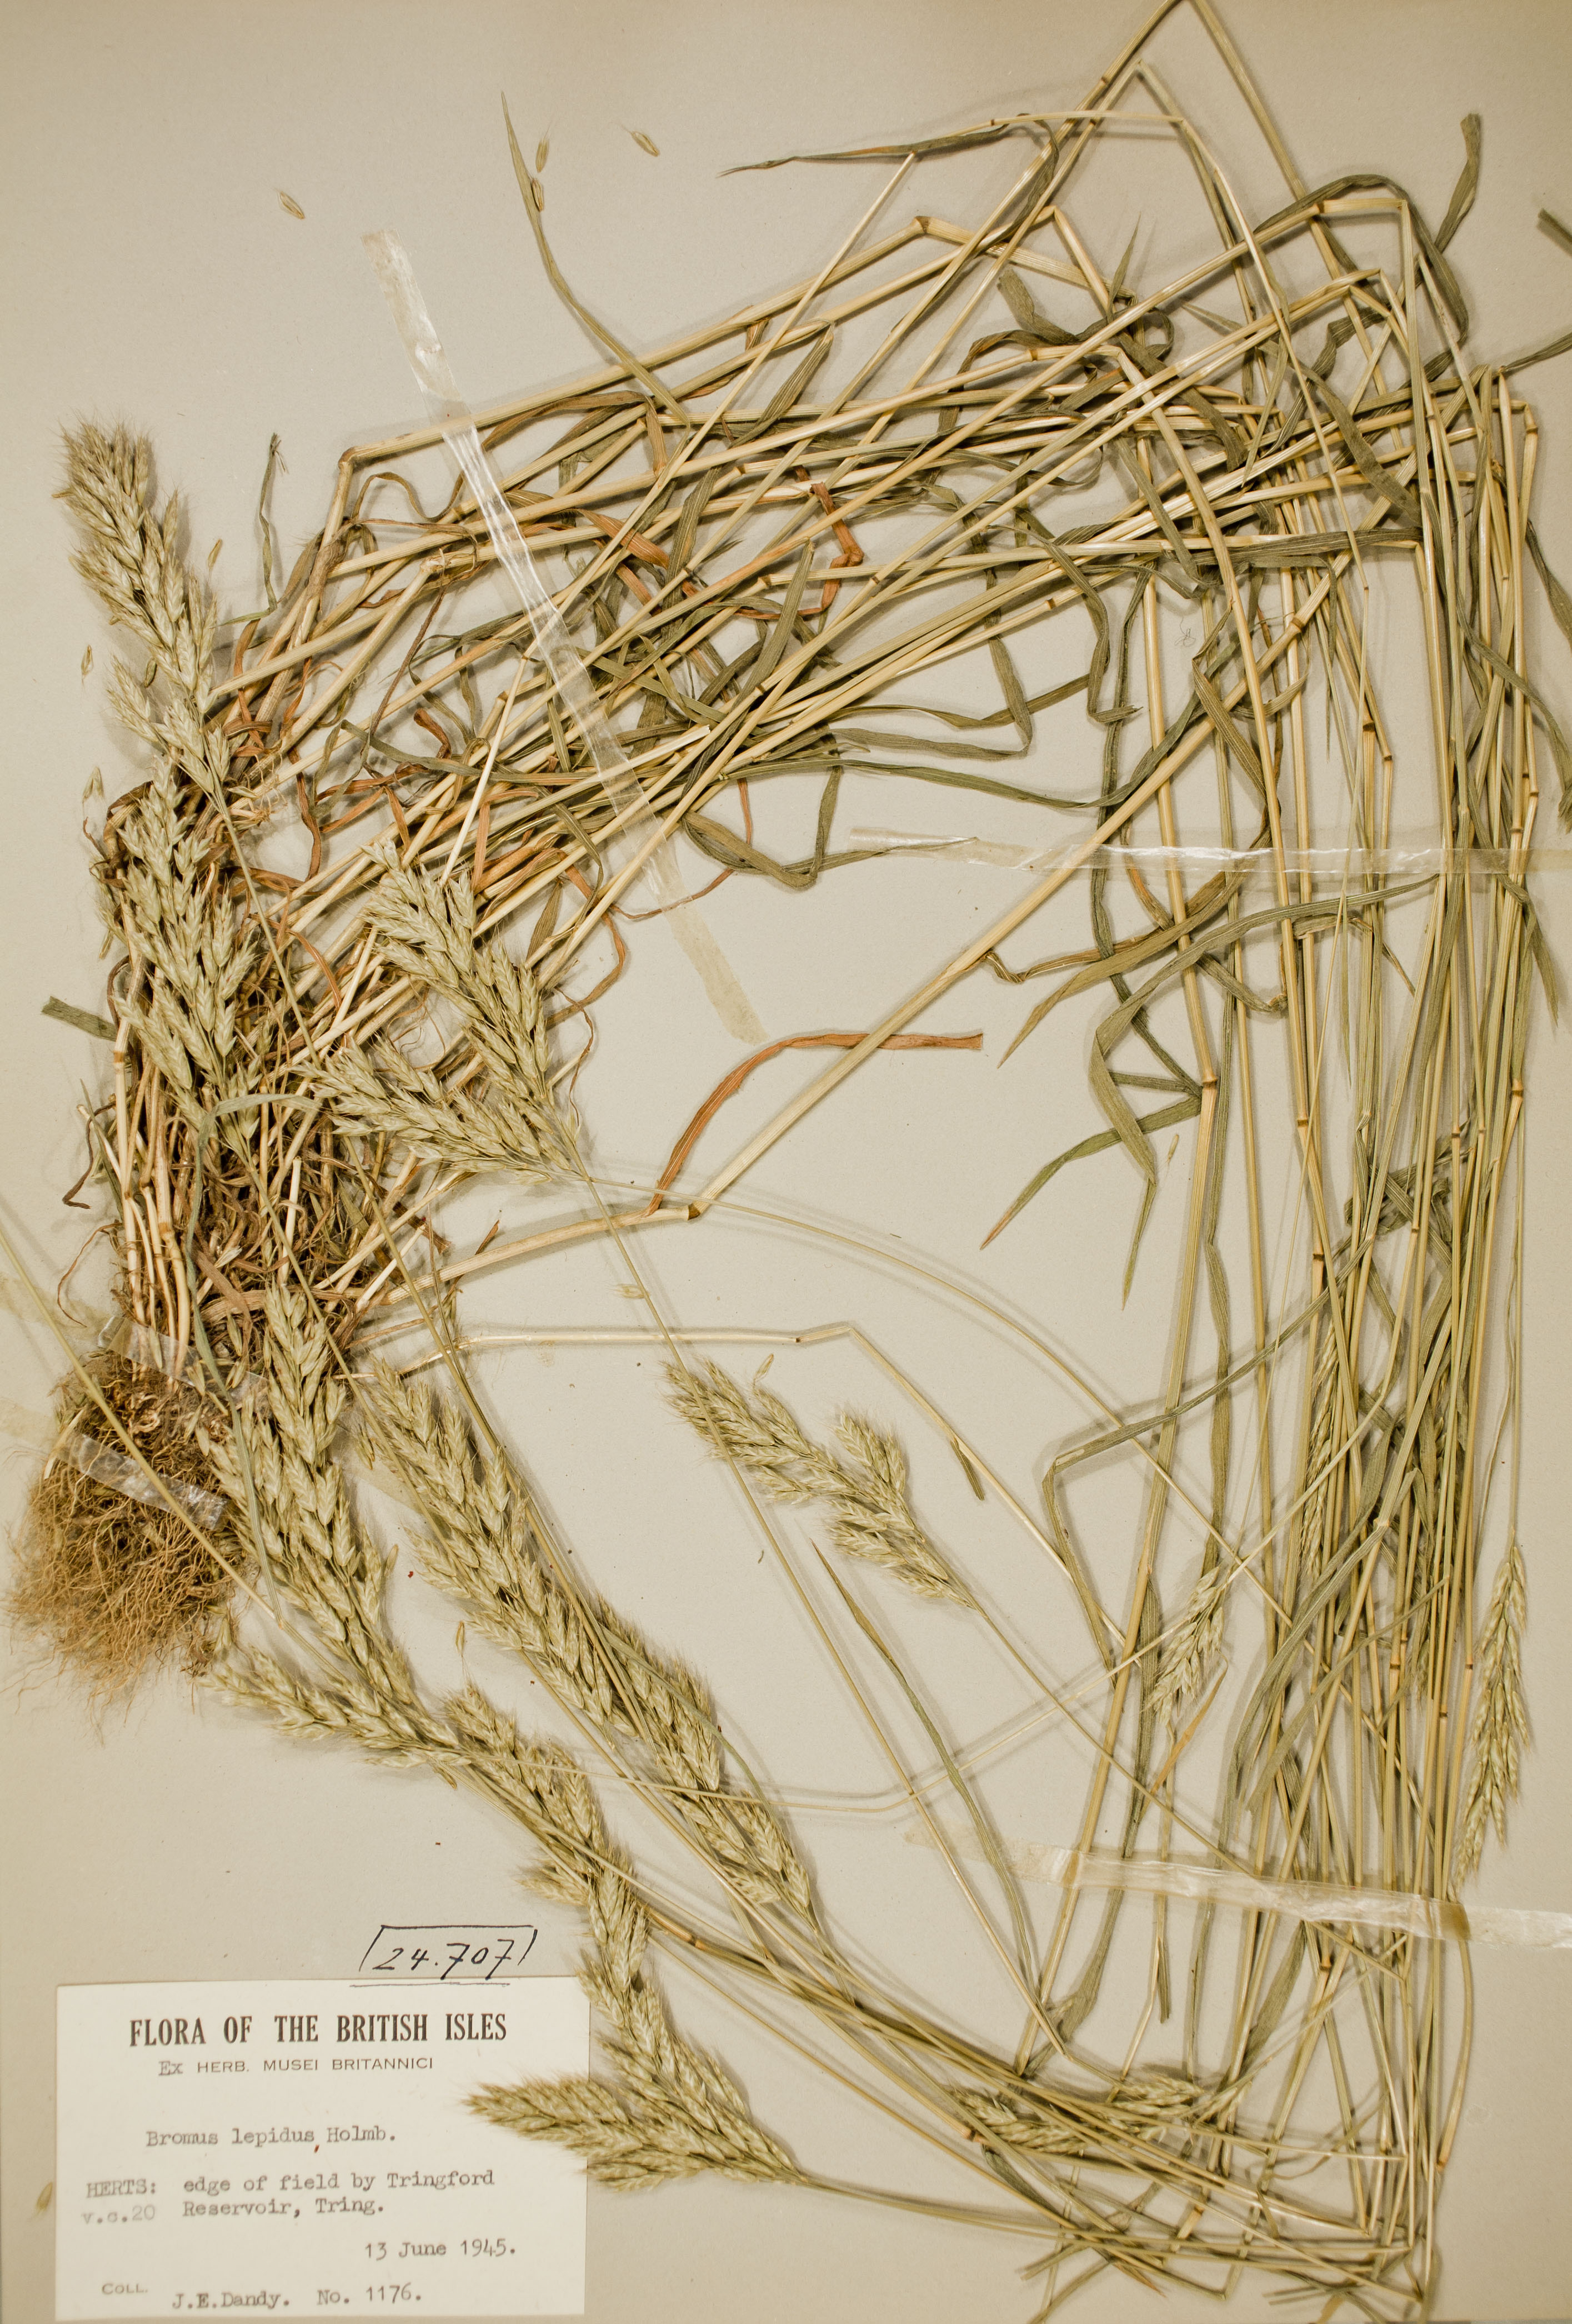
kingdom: Plantae
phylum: Tracheophyta
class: Liliopsida
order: Poales
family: Poaceae
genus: Bromus
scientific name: Bromus lepidus
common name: Slender soft-brome
